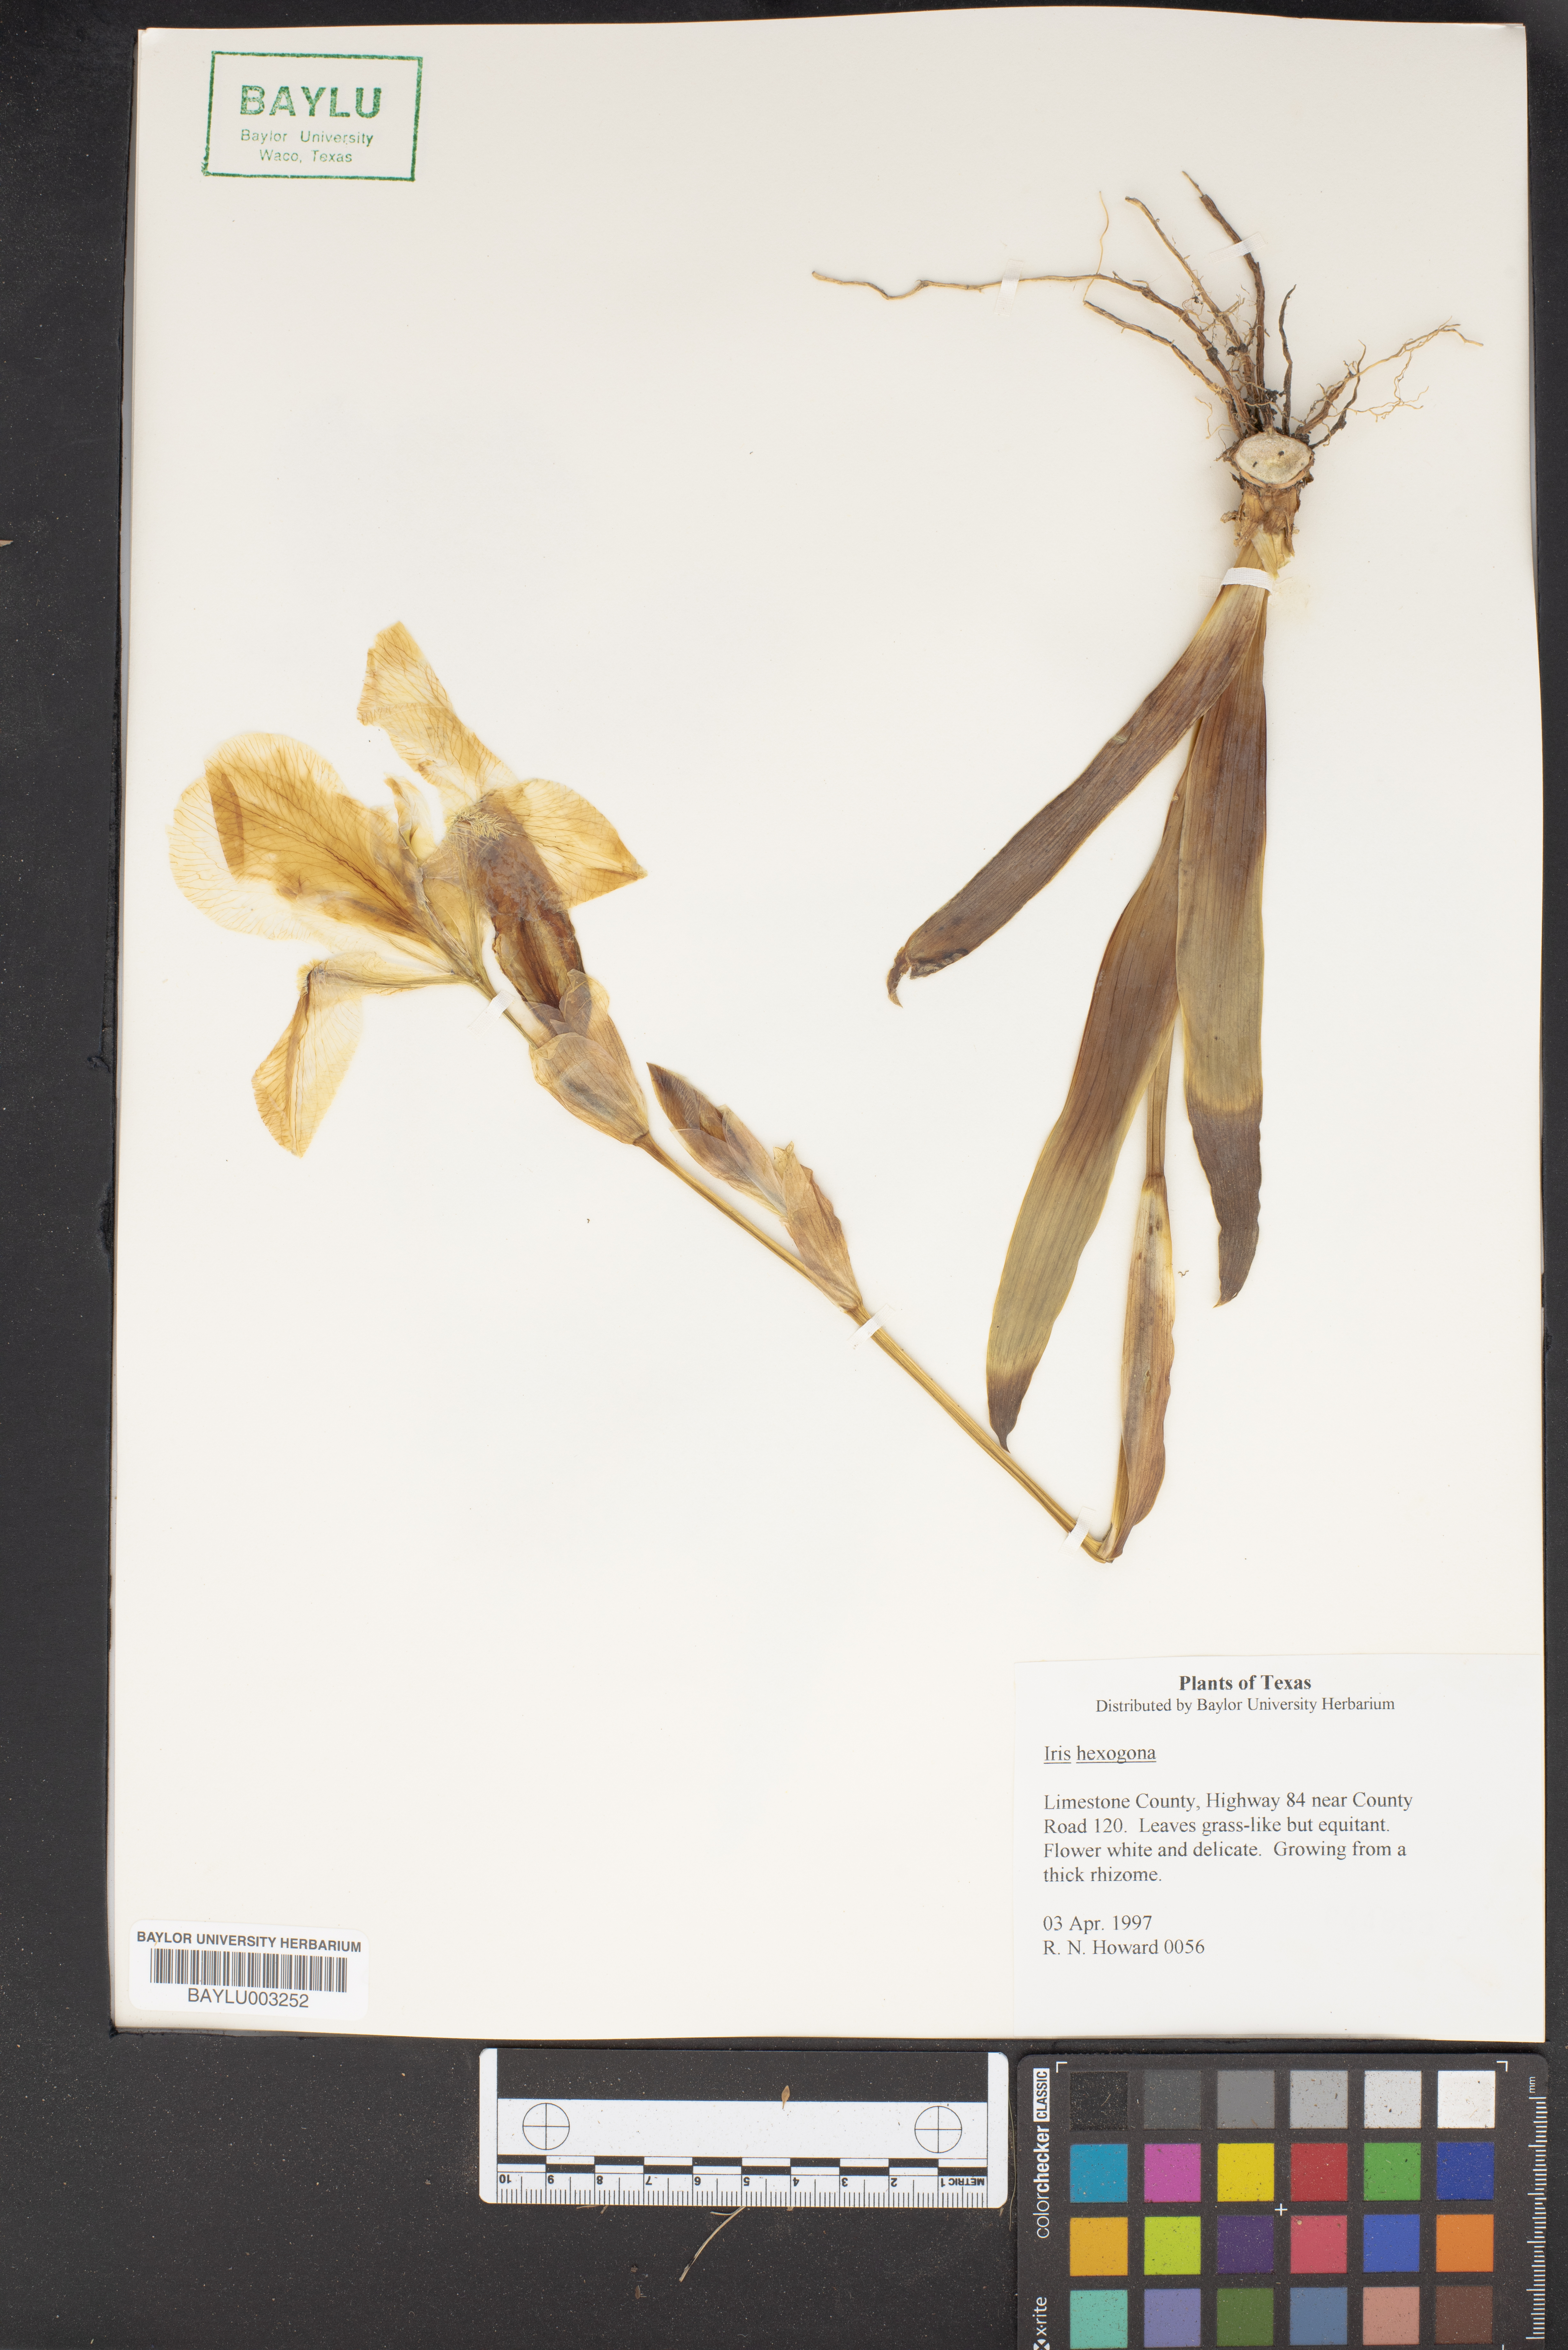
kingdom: Plantae
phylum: Tracheophyta
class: Liliopsida
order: Asparagales
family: Iridaceae
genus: Iris
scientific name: Iris hexagona
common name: Carolina iris
